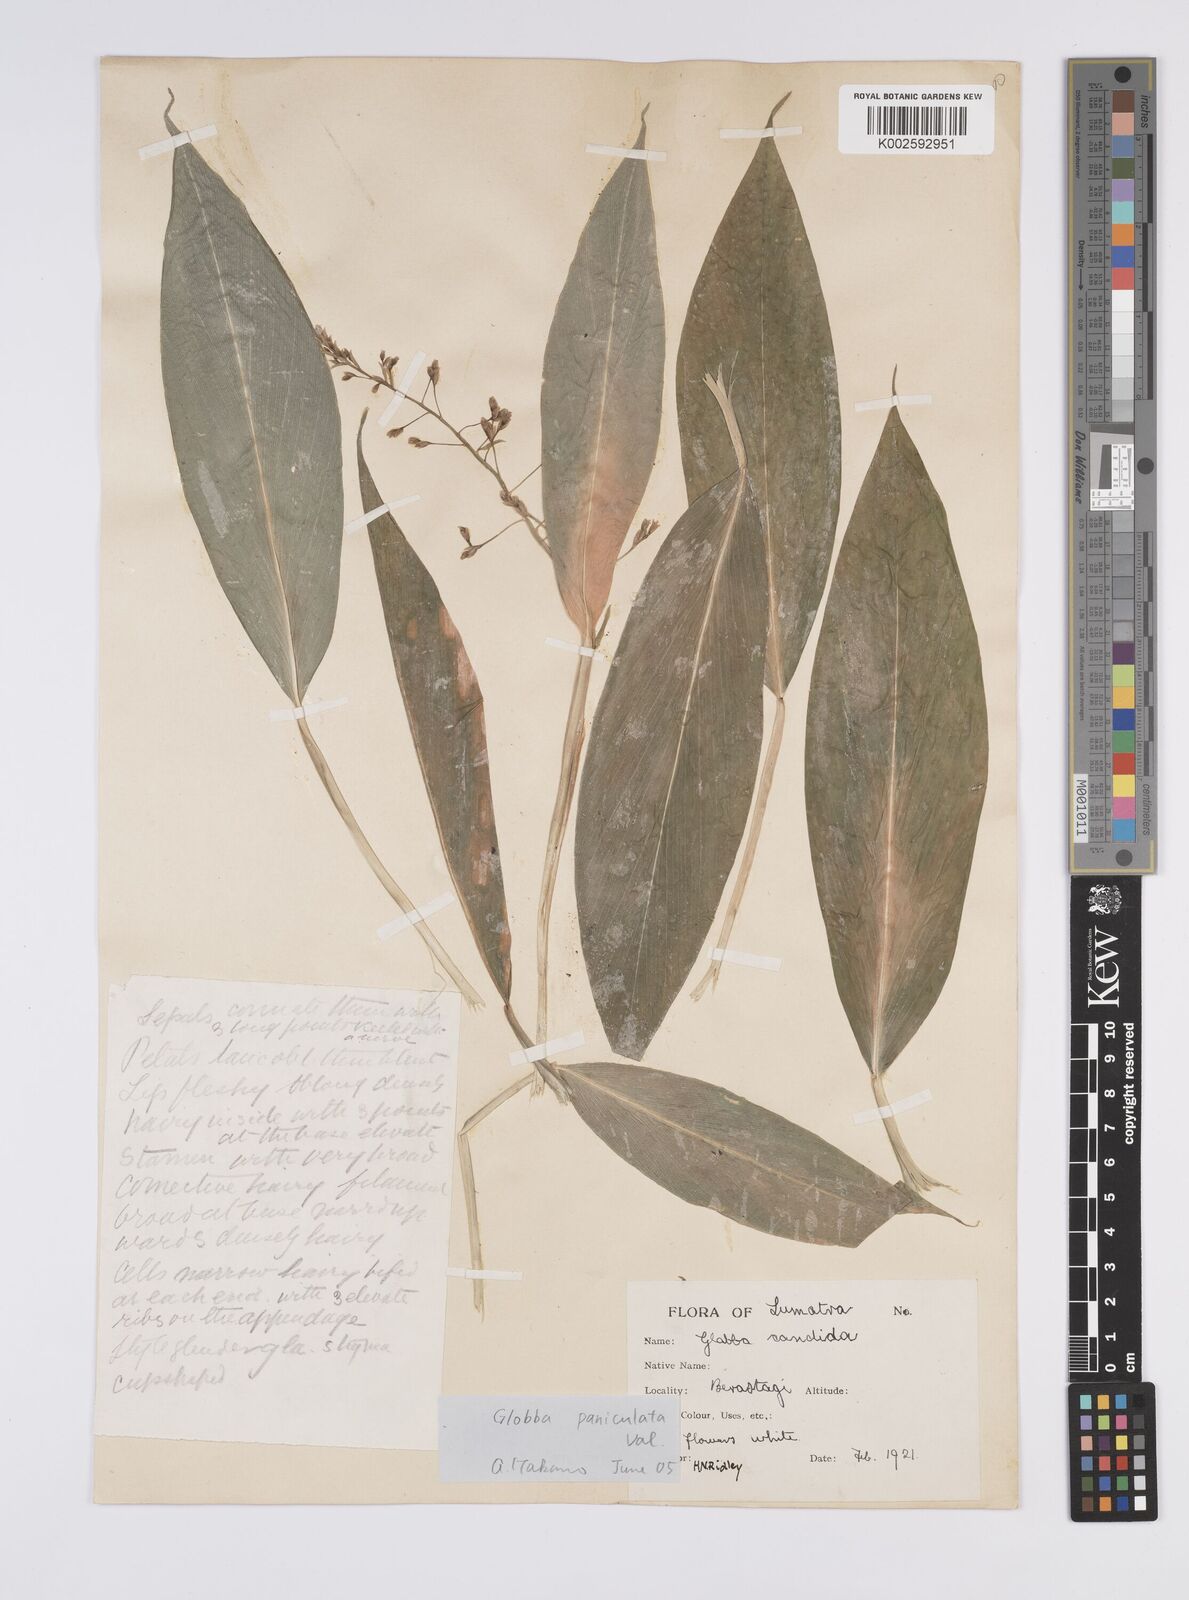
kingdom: Plantae
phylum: Tracheophyta
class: Liliopsida
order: Zingiberales
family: Zingiberaceae
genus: Globba
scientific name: Globba paniculata
